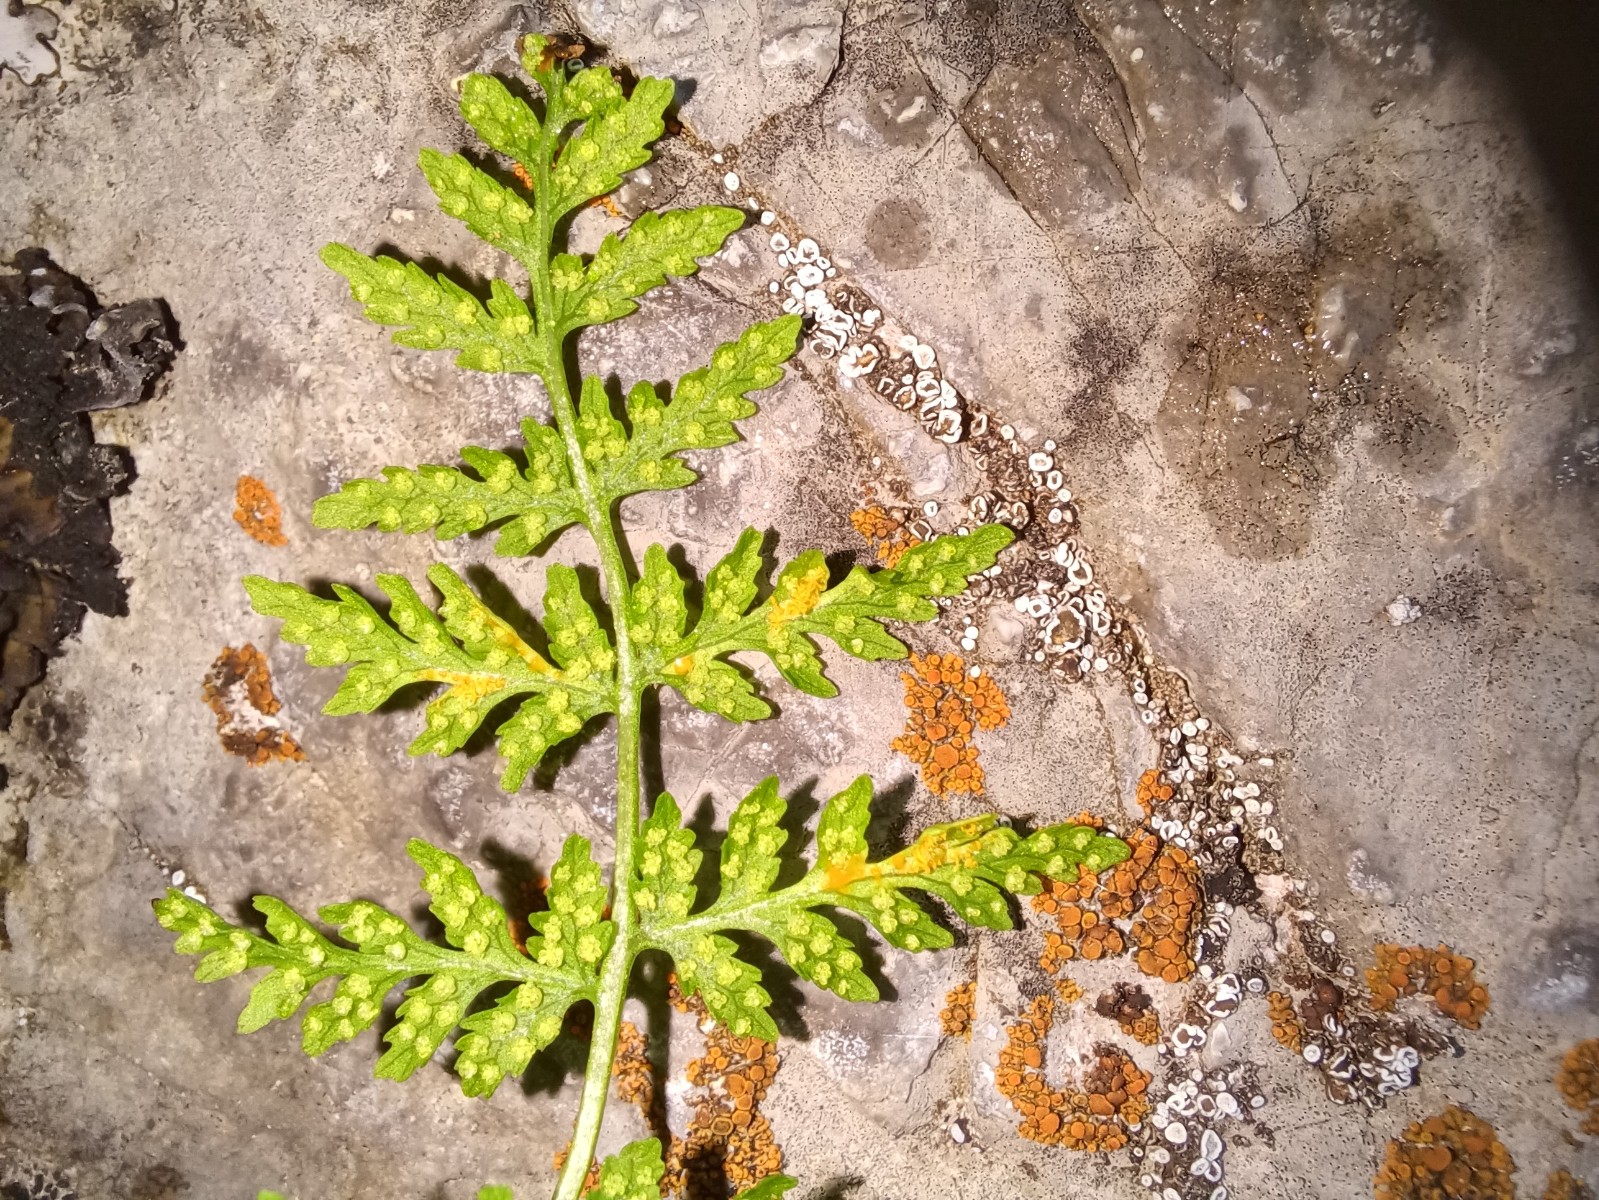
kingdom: Fungi
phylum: Basidiomycota
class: Pucciniomycetes
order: Pucciniales
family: Pucciniastraceae
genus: Hyalopsora
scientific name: Hyalopsora polypodii
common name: Brittle bladder fern rust
